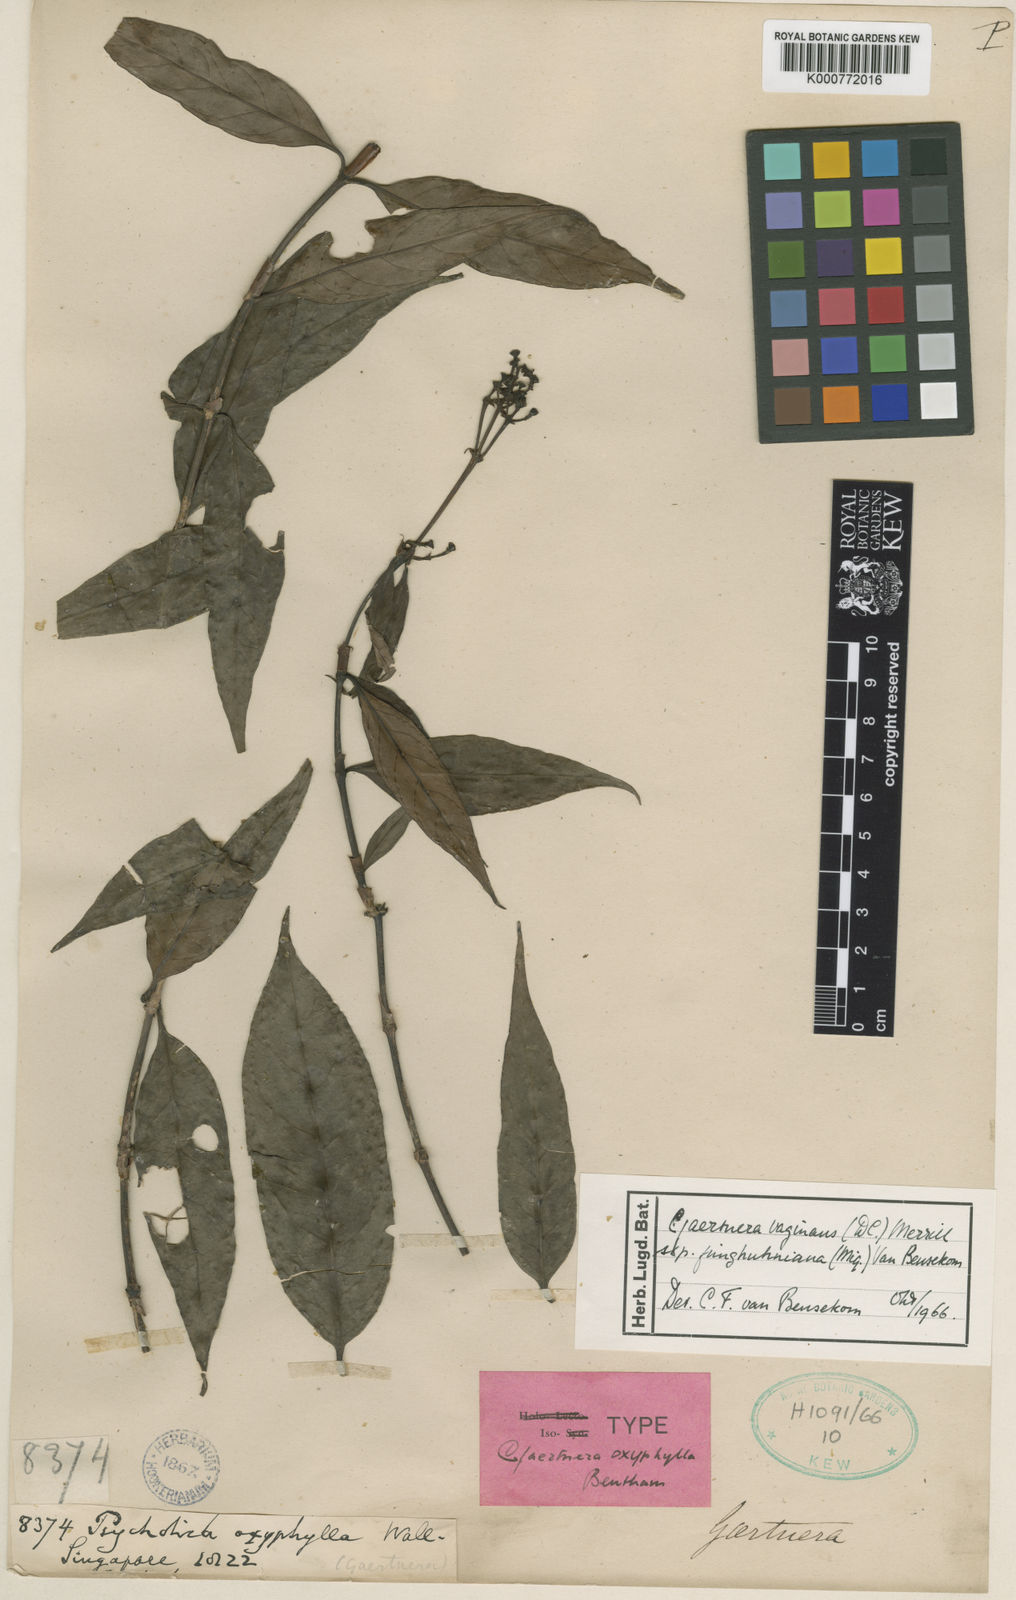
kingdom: Plantae
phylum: Tracheophyta
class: Magnoliopsida
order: Gentianales
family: Rubiaceae
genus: Gaertnera
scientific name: Gaertnera junghuhniana
